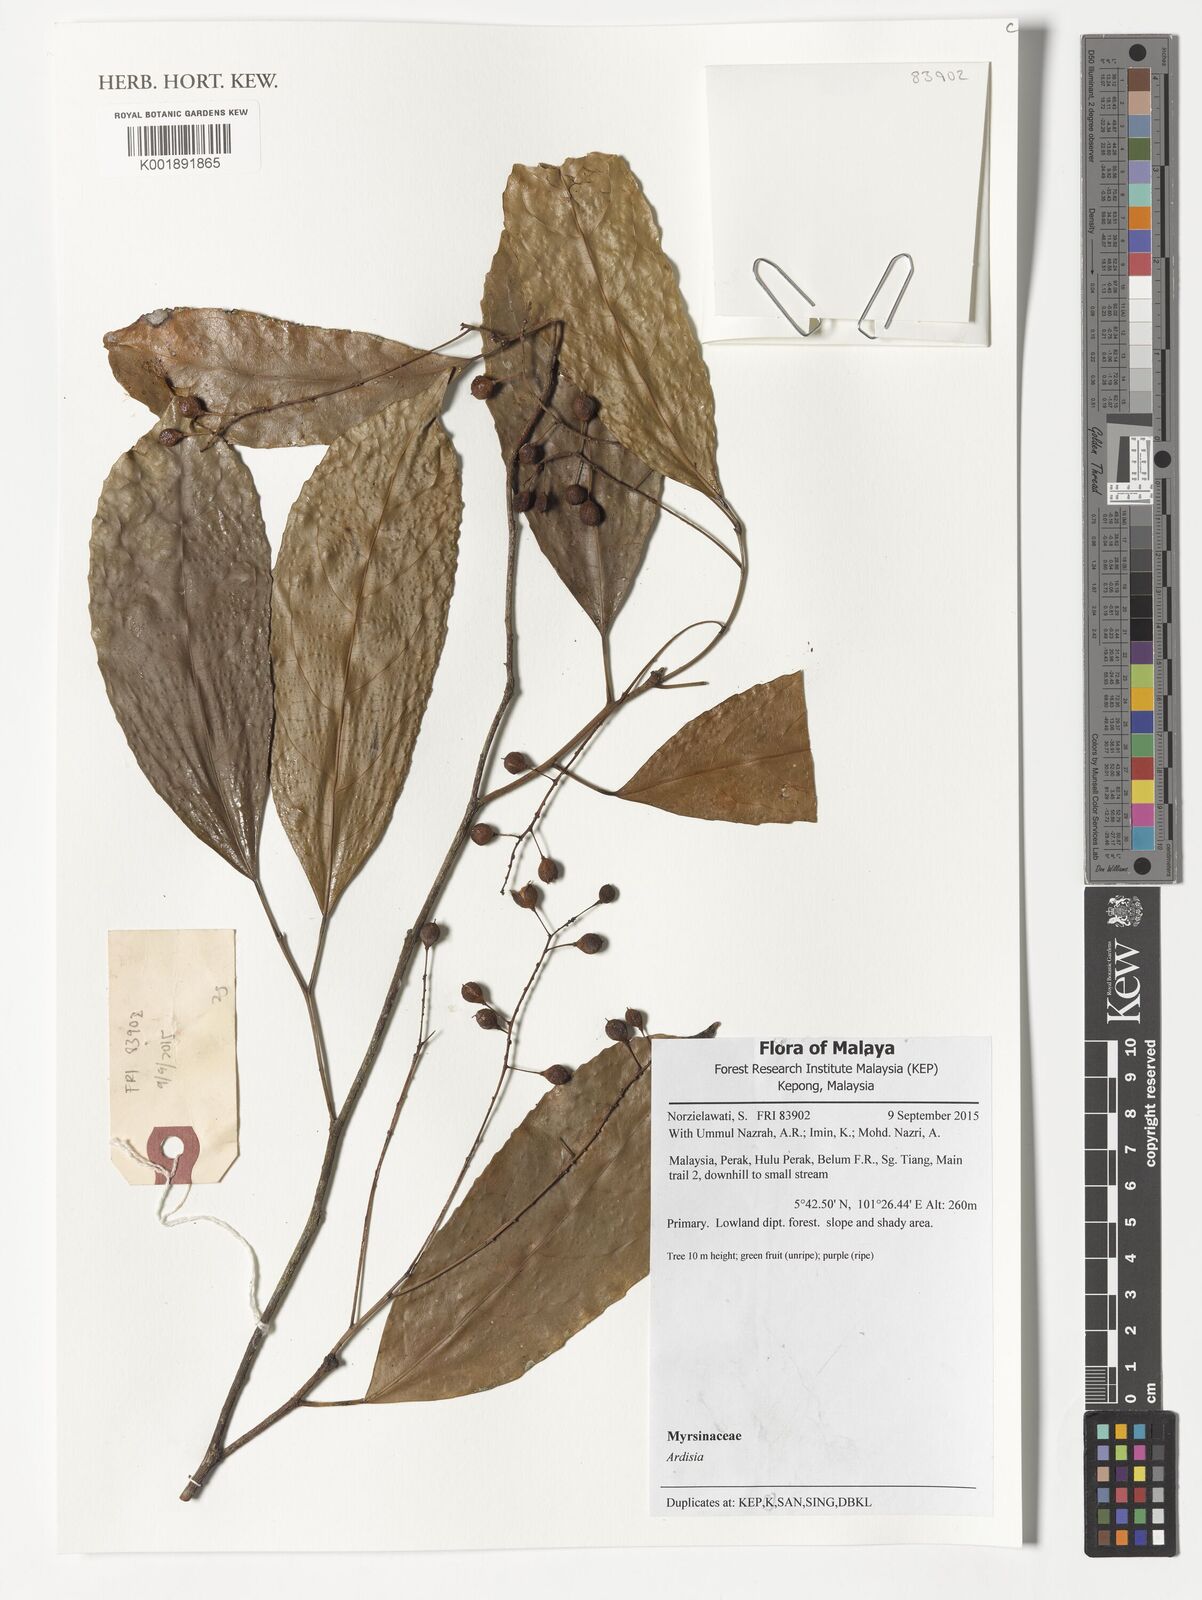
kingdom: Plantae
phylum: Tracheophyta
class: Magnoliopsida
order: Ericales
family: Primulaceae
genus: Ardisia
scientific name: Ardisia
